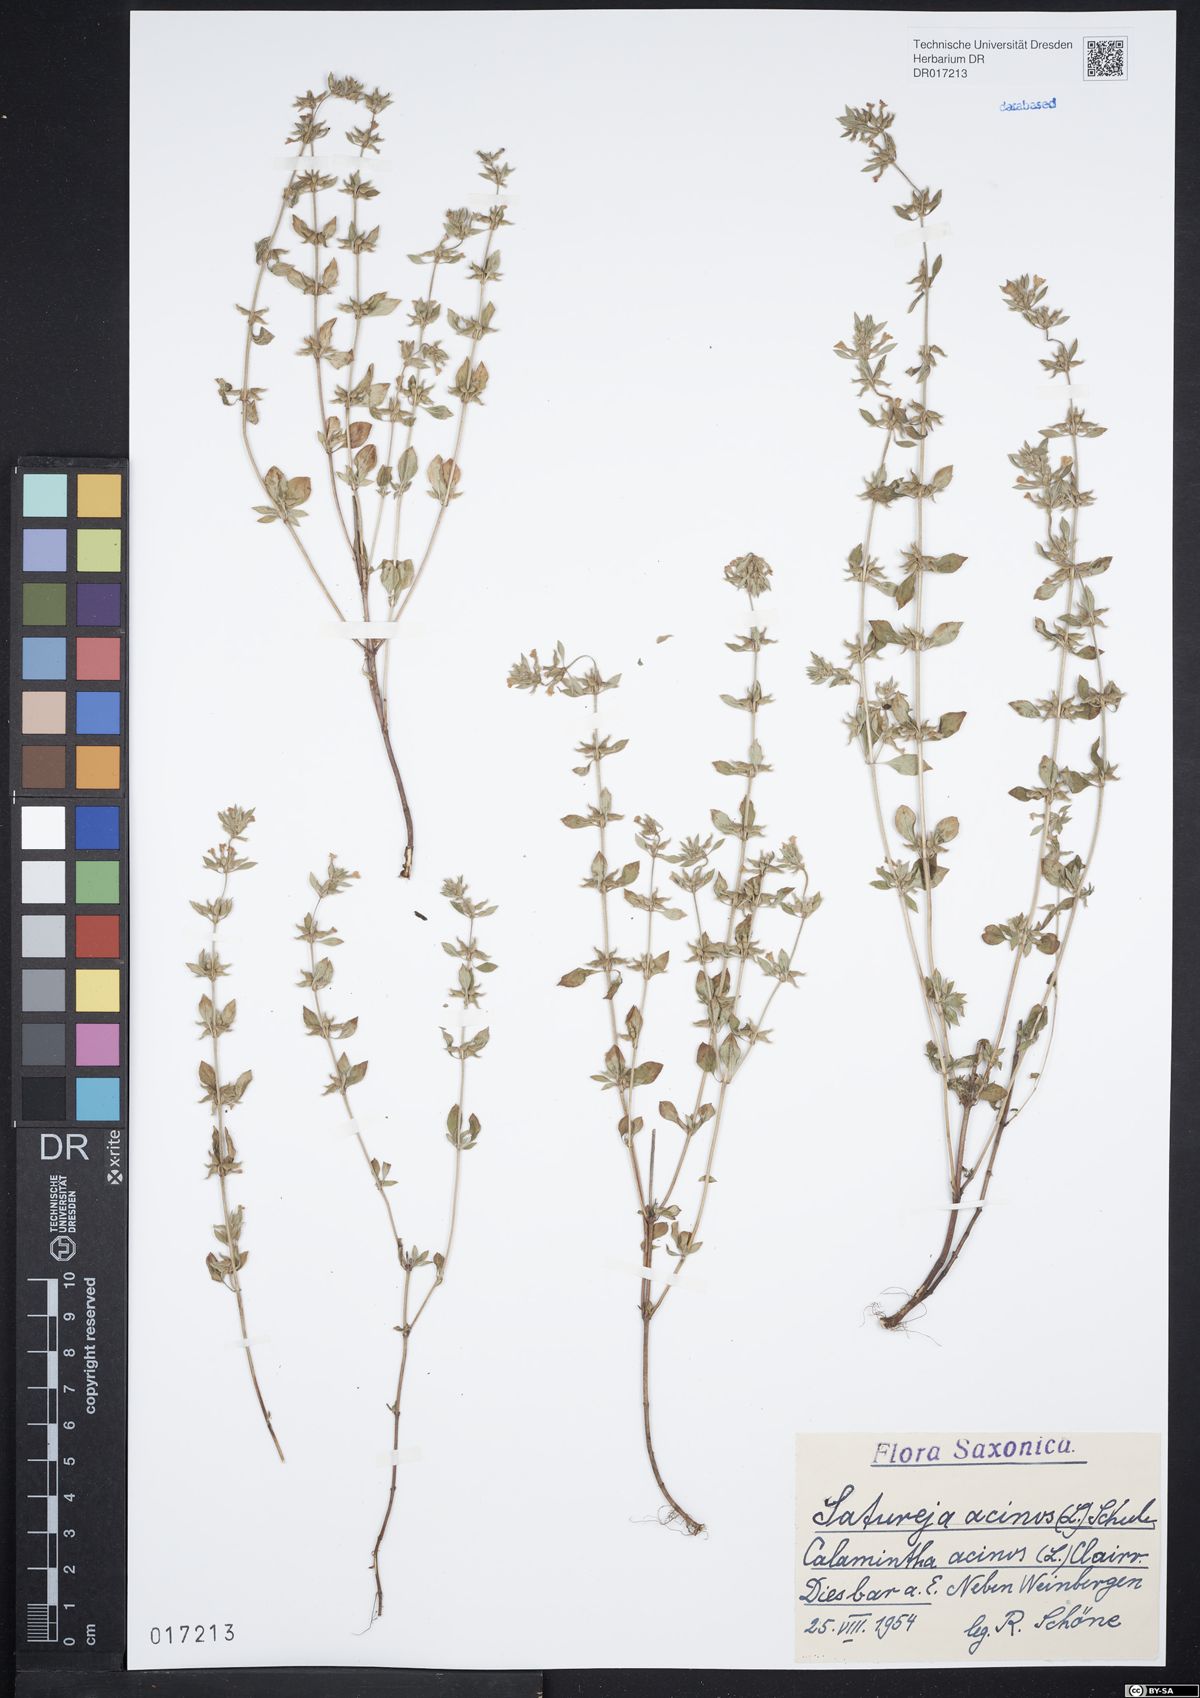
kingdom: Plantae
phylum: Tracheophyta
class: Magnoliopsida
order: Lamiales
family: Lamiaceae
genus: Clinopodium
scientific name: Clinopodium acinos
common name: Basil thyme
